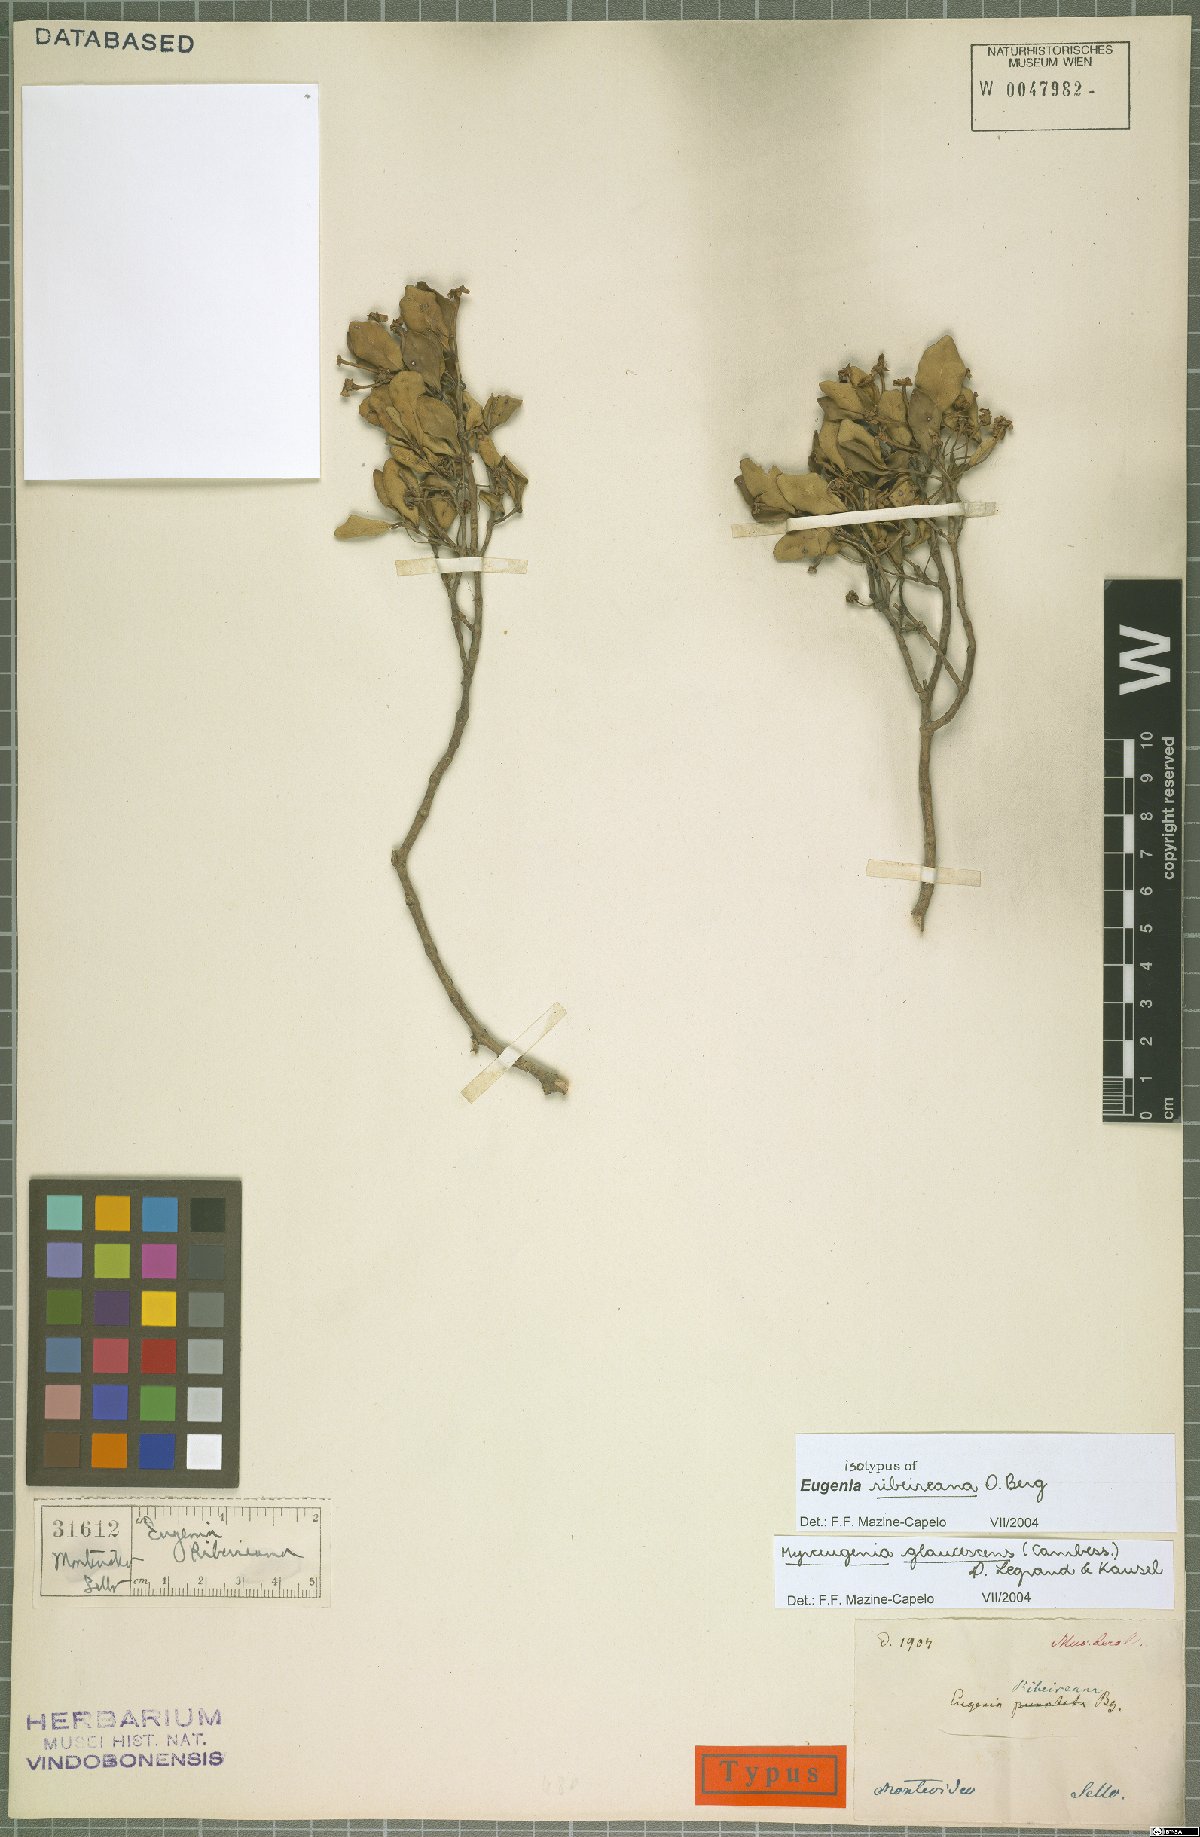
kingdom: Plantae
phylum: Tracheophyta
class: Magnoliopsida
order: Myrtales
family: Myrtaceae
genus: Myrceugenia
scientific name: Myrceugenia glaucescens
